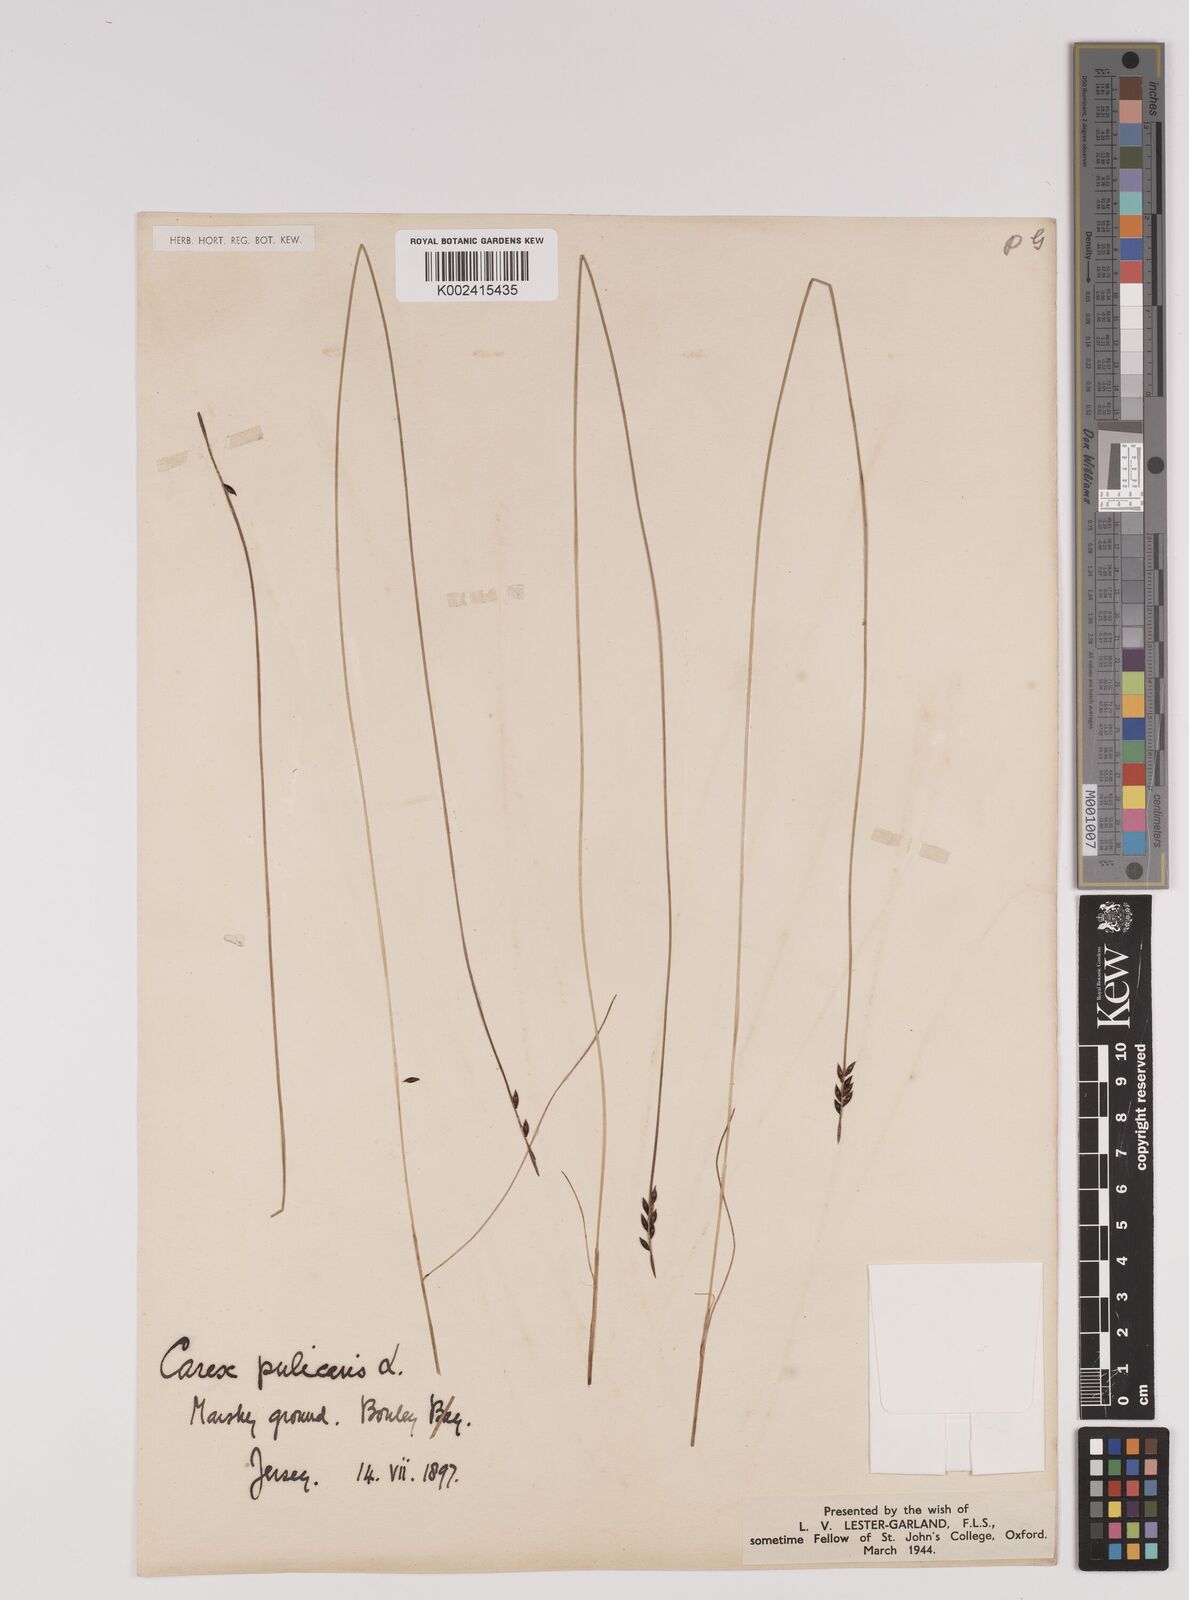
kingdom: Plantae
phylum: Tracheophyta
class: Liliopsida
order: Poales
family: Cyperaceae
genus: Carex
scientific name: Carex pulicaris
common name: Flea sedge
